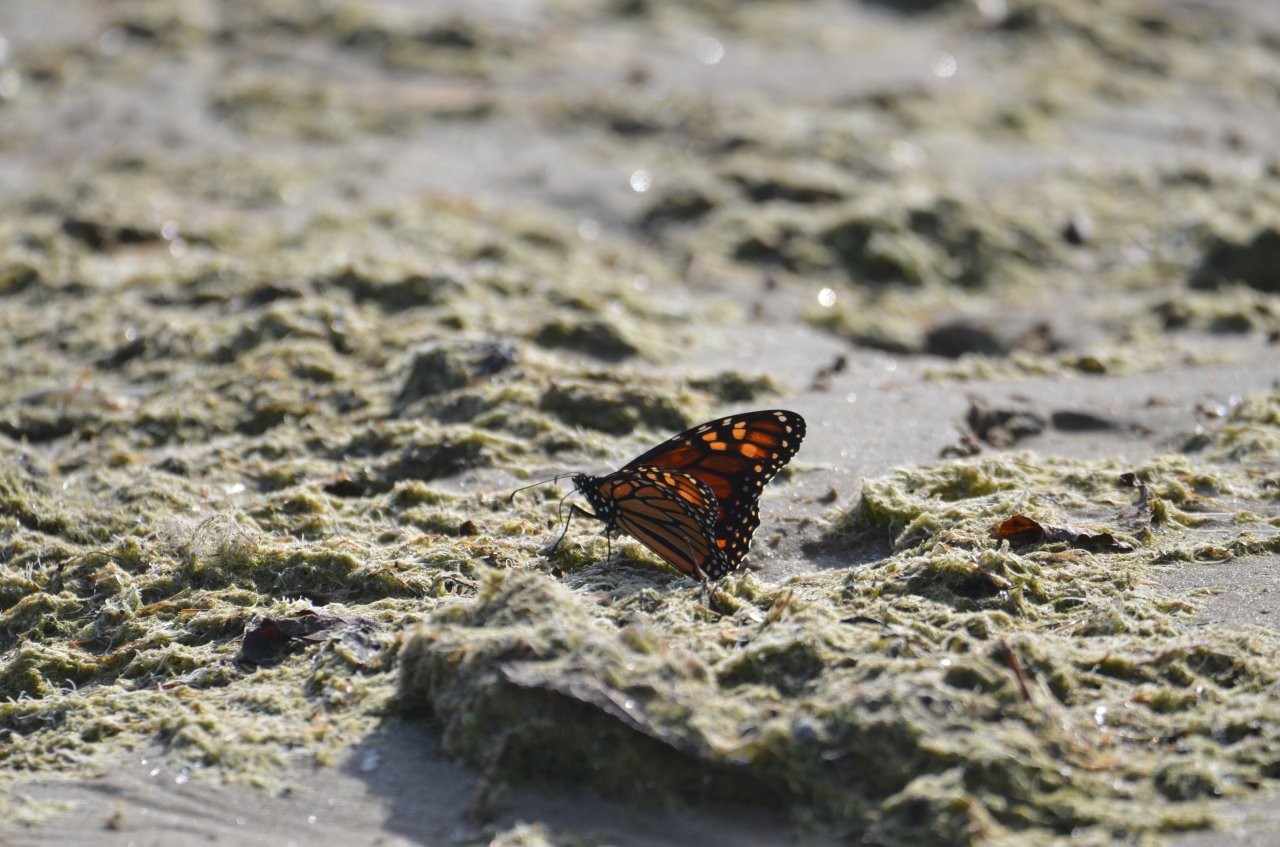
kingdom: Animalia
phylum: Arthropoda
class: Insecta
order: Lepidoptera
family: Nymphalidae
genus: Danaus
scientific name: Danaus plexippus
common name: Monarch
